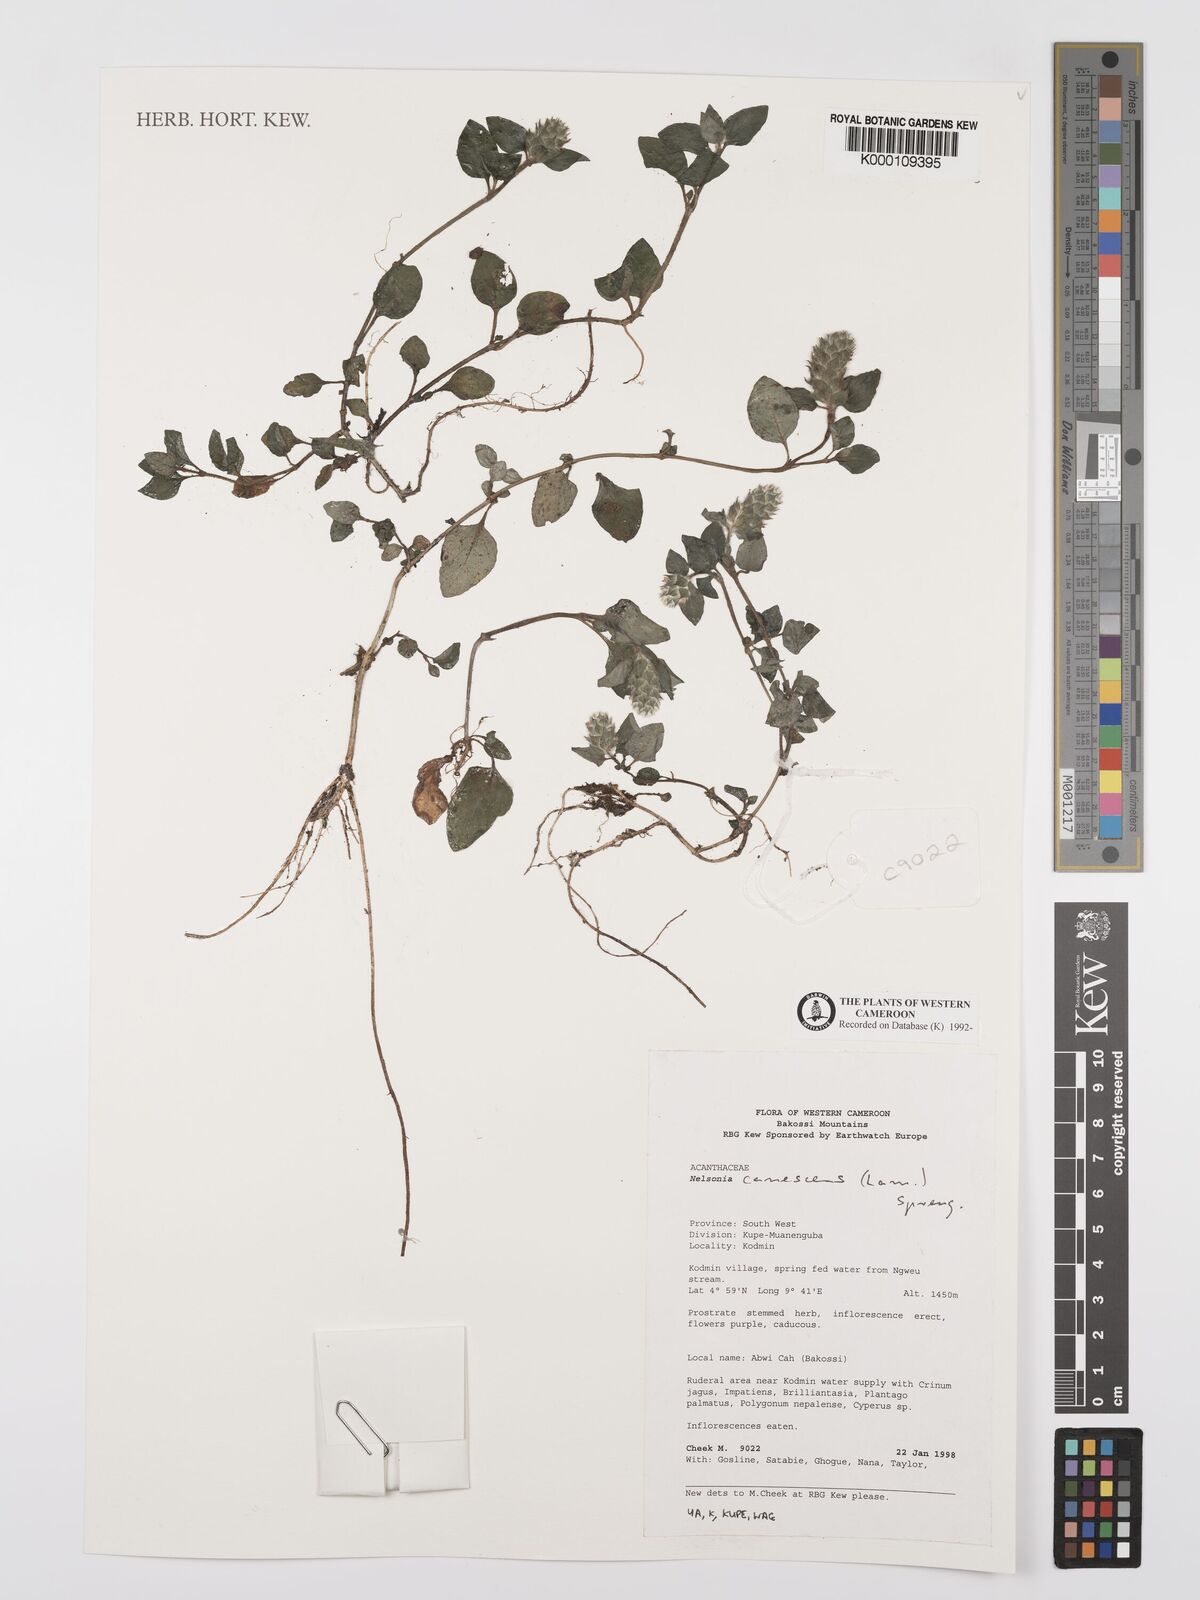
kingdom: Plantae
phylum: Tracheophyta
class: Magnoliopsida
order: Lamiales
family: Acanthaceae
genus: Nelsonia
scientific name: Nelsonia canescens
